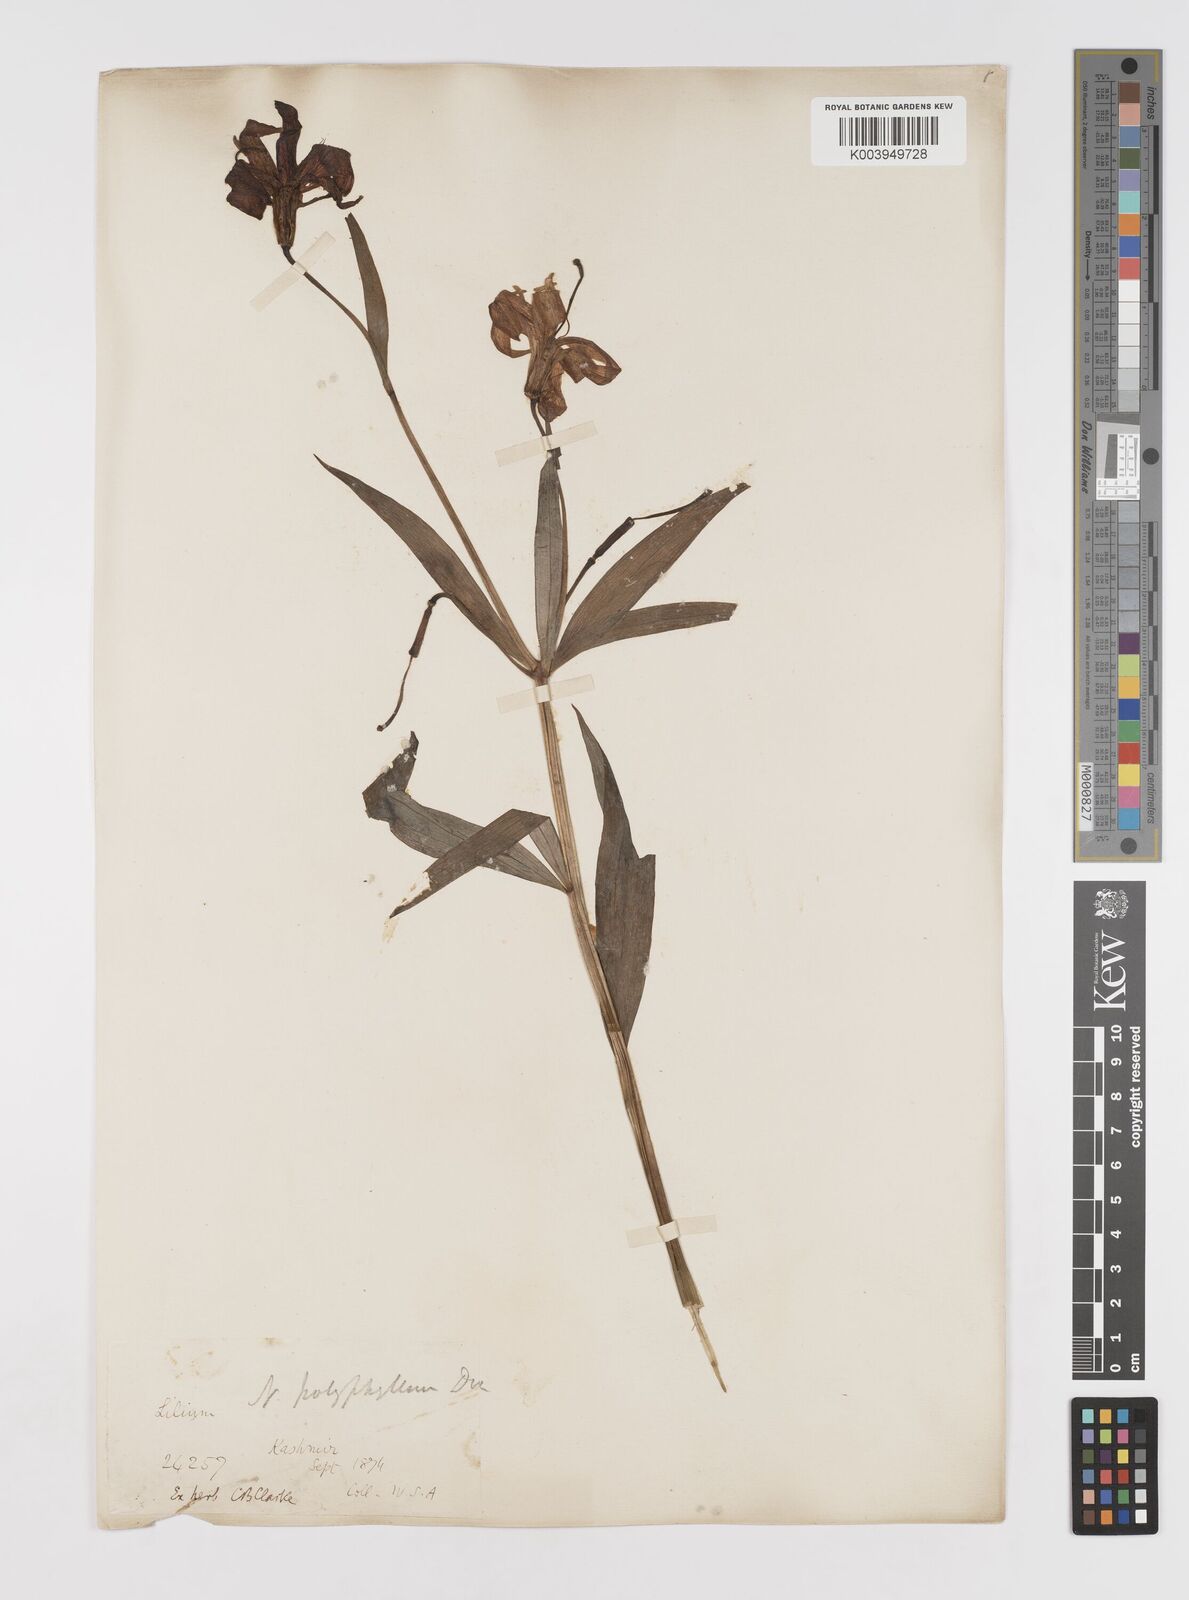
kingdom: Plantae
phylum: Tracheophyta
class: Liliopsida
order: Liliales
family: Liliaceae
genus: Lilium
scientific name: Lilium polyphyllum
